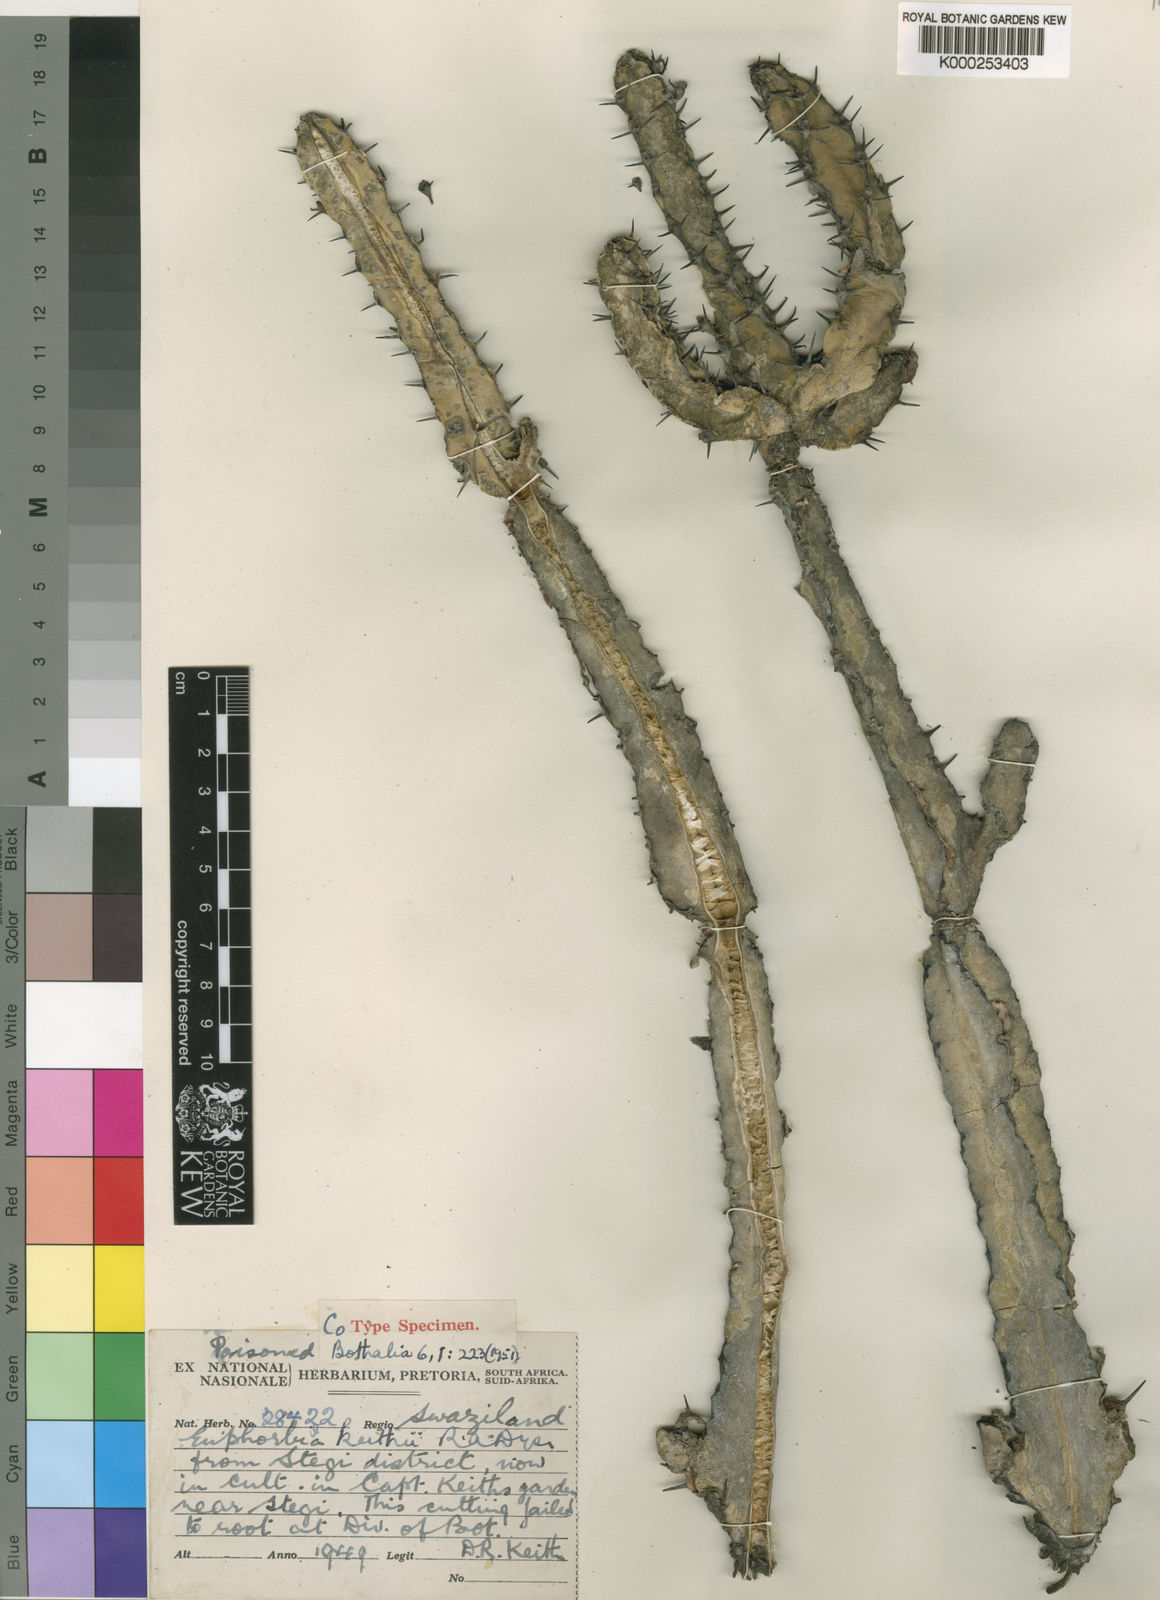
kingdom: Plantae
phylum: Tracheophyta
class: Magnoliopsida
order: Malpighiales
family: Euphorbiaceae
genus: Euphorbia
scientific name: Euphorbia keithii
